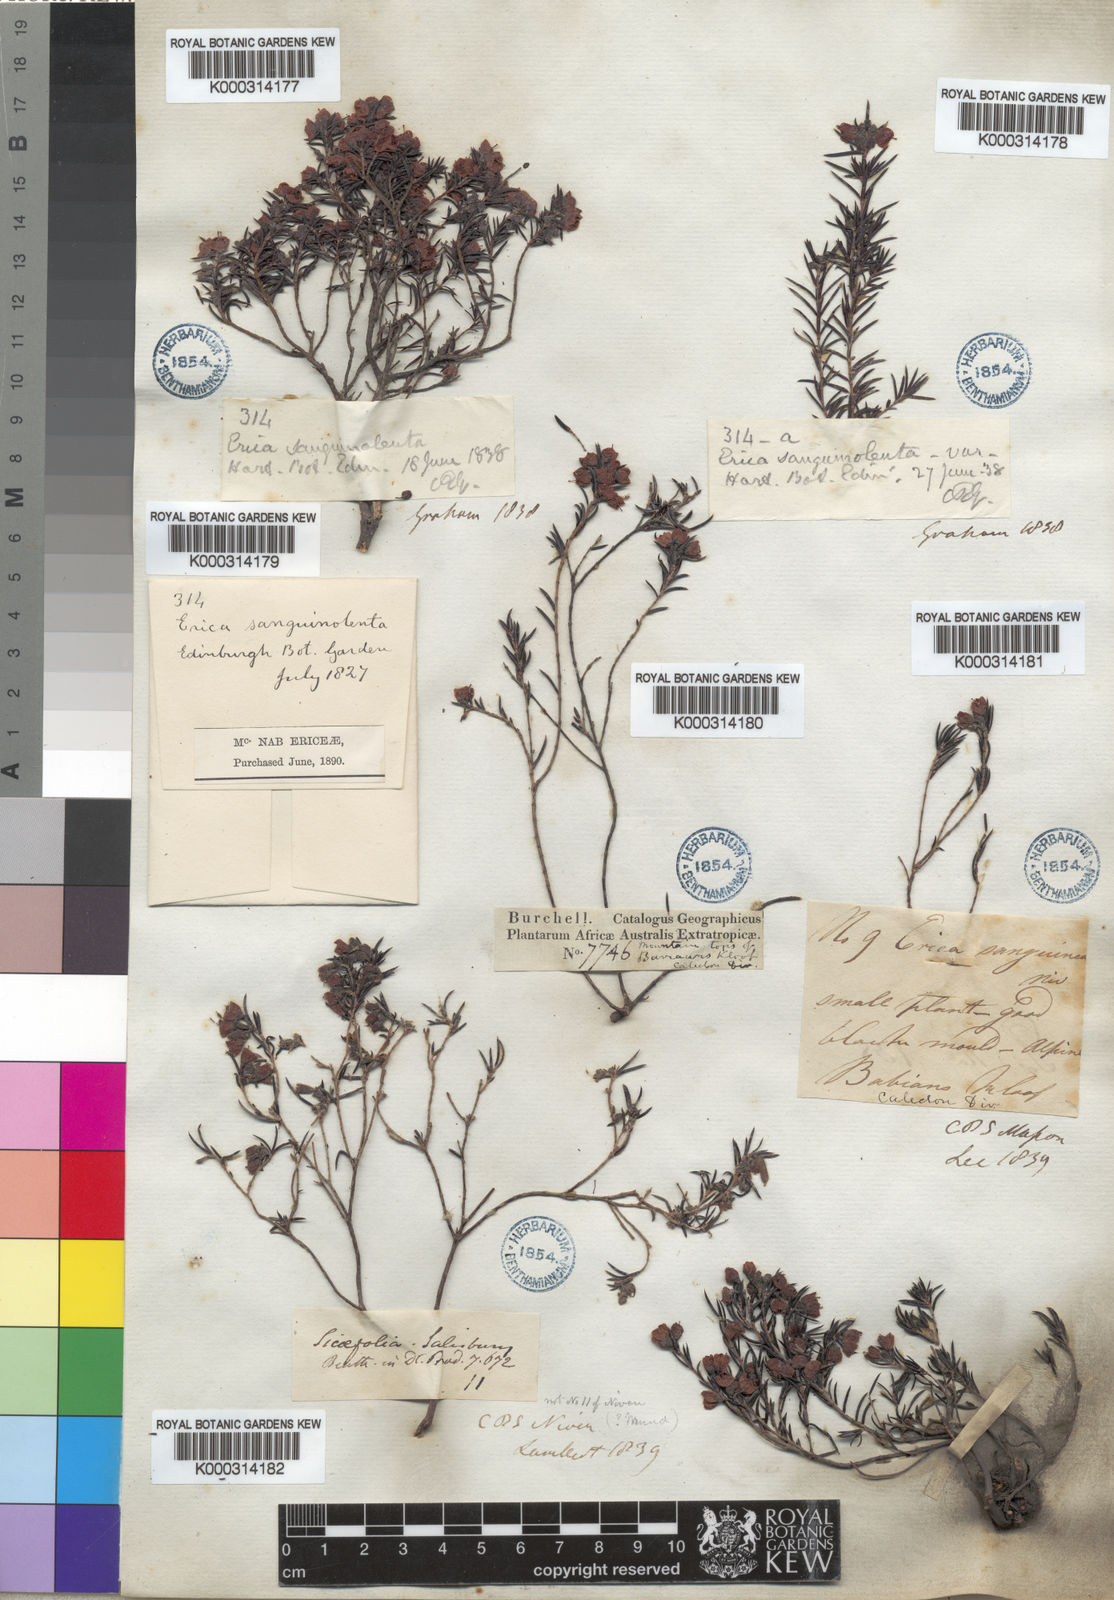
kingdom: Plantae
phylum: Tracheophyta
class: Magnoliopsida
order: Ericales
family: Ericaceae
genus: Erica
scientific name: Erica sicifolia
